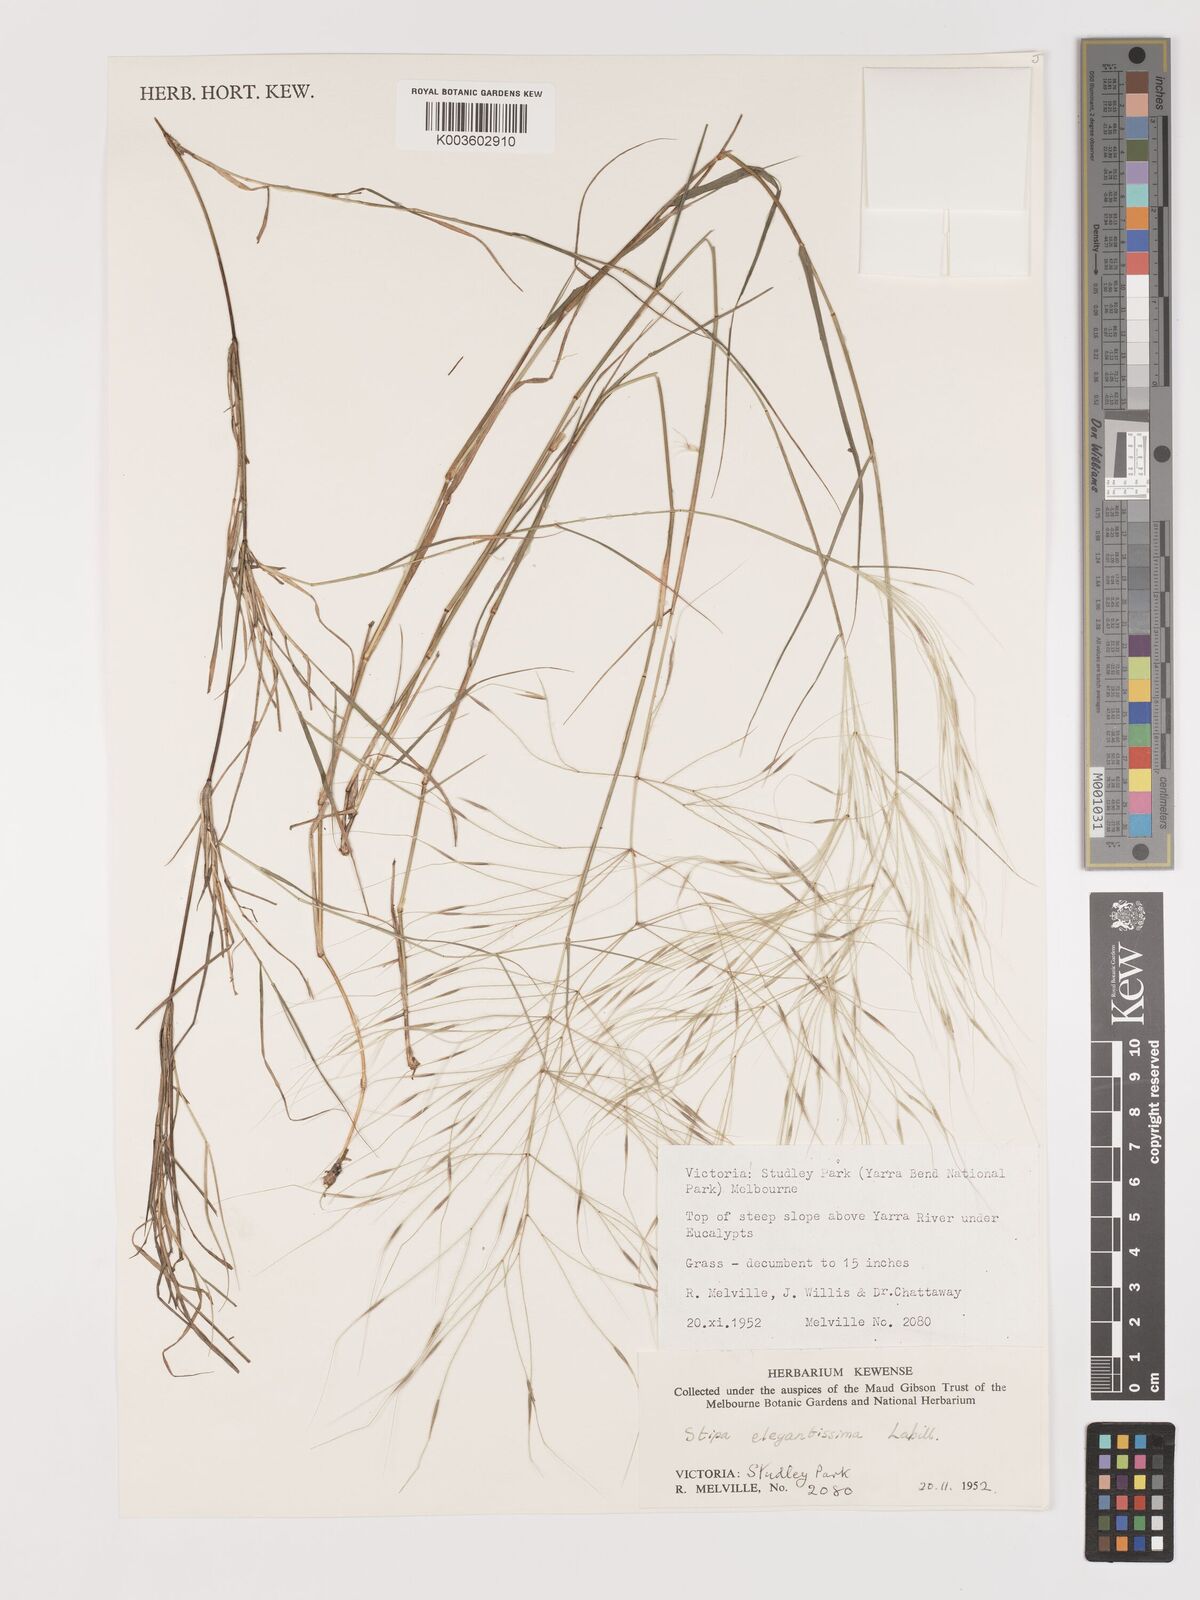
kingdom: Plantae
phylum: Tracheophyta
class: Liliopsida
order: Poales
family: Poaceae
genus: Austrostipa
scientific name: Austrostipa elegantissima
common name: Feather spear grass
